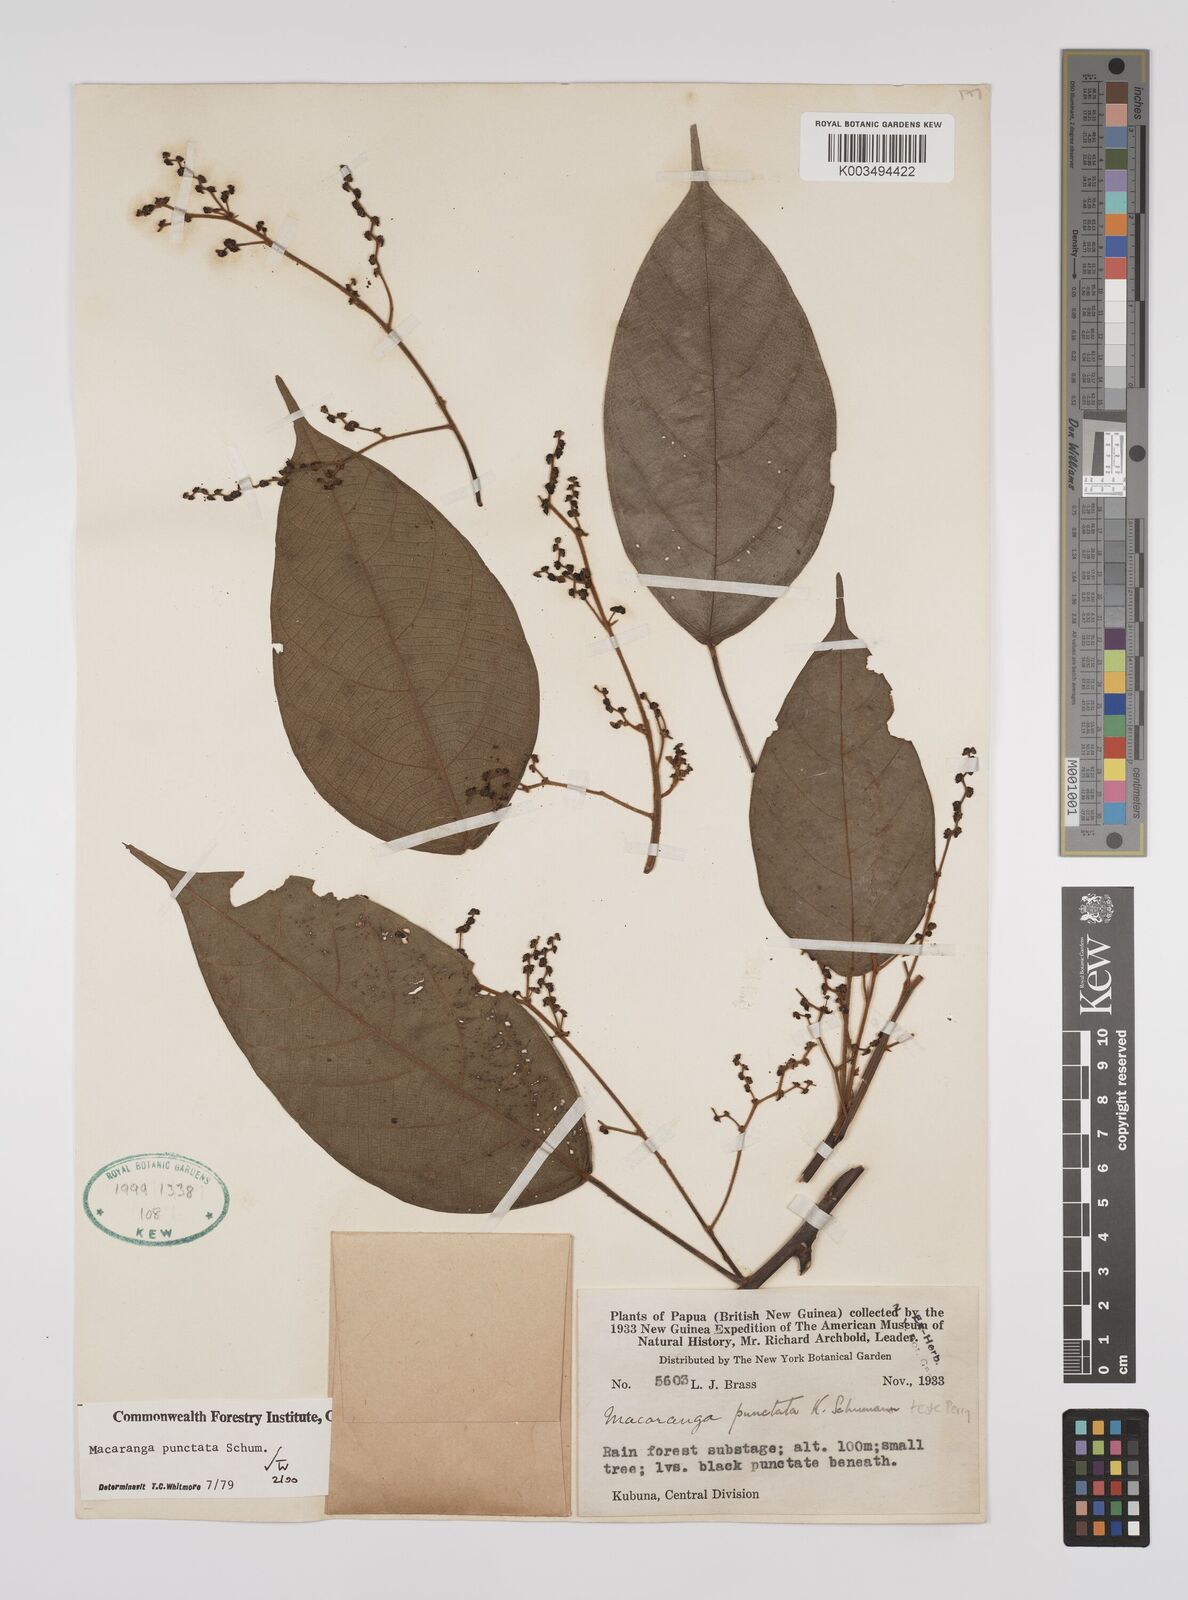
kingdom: Plantae
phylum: Tracheophyta
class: Magnoliopsida
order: Malpighiales
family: Euphorbiaceae
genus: Macaranga
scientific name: Macaranga punctata
